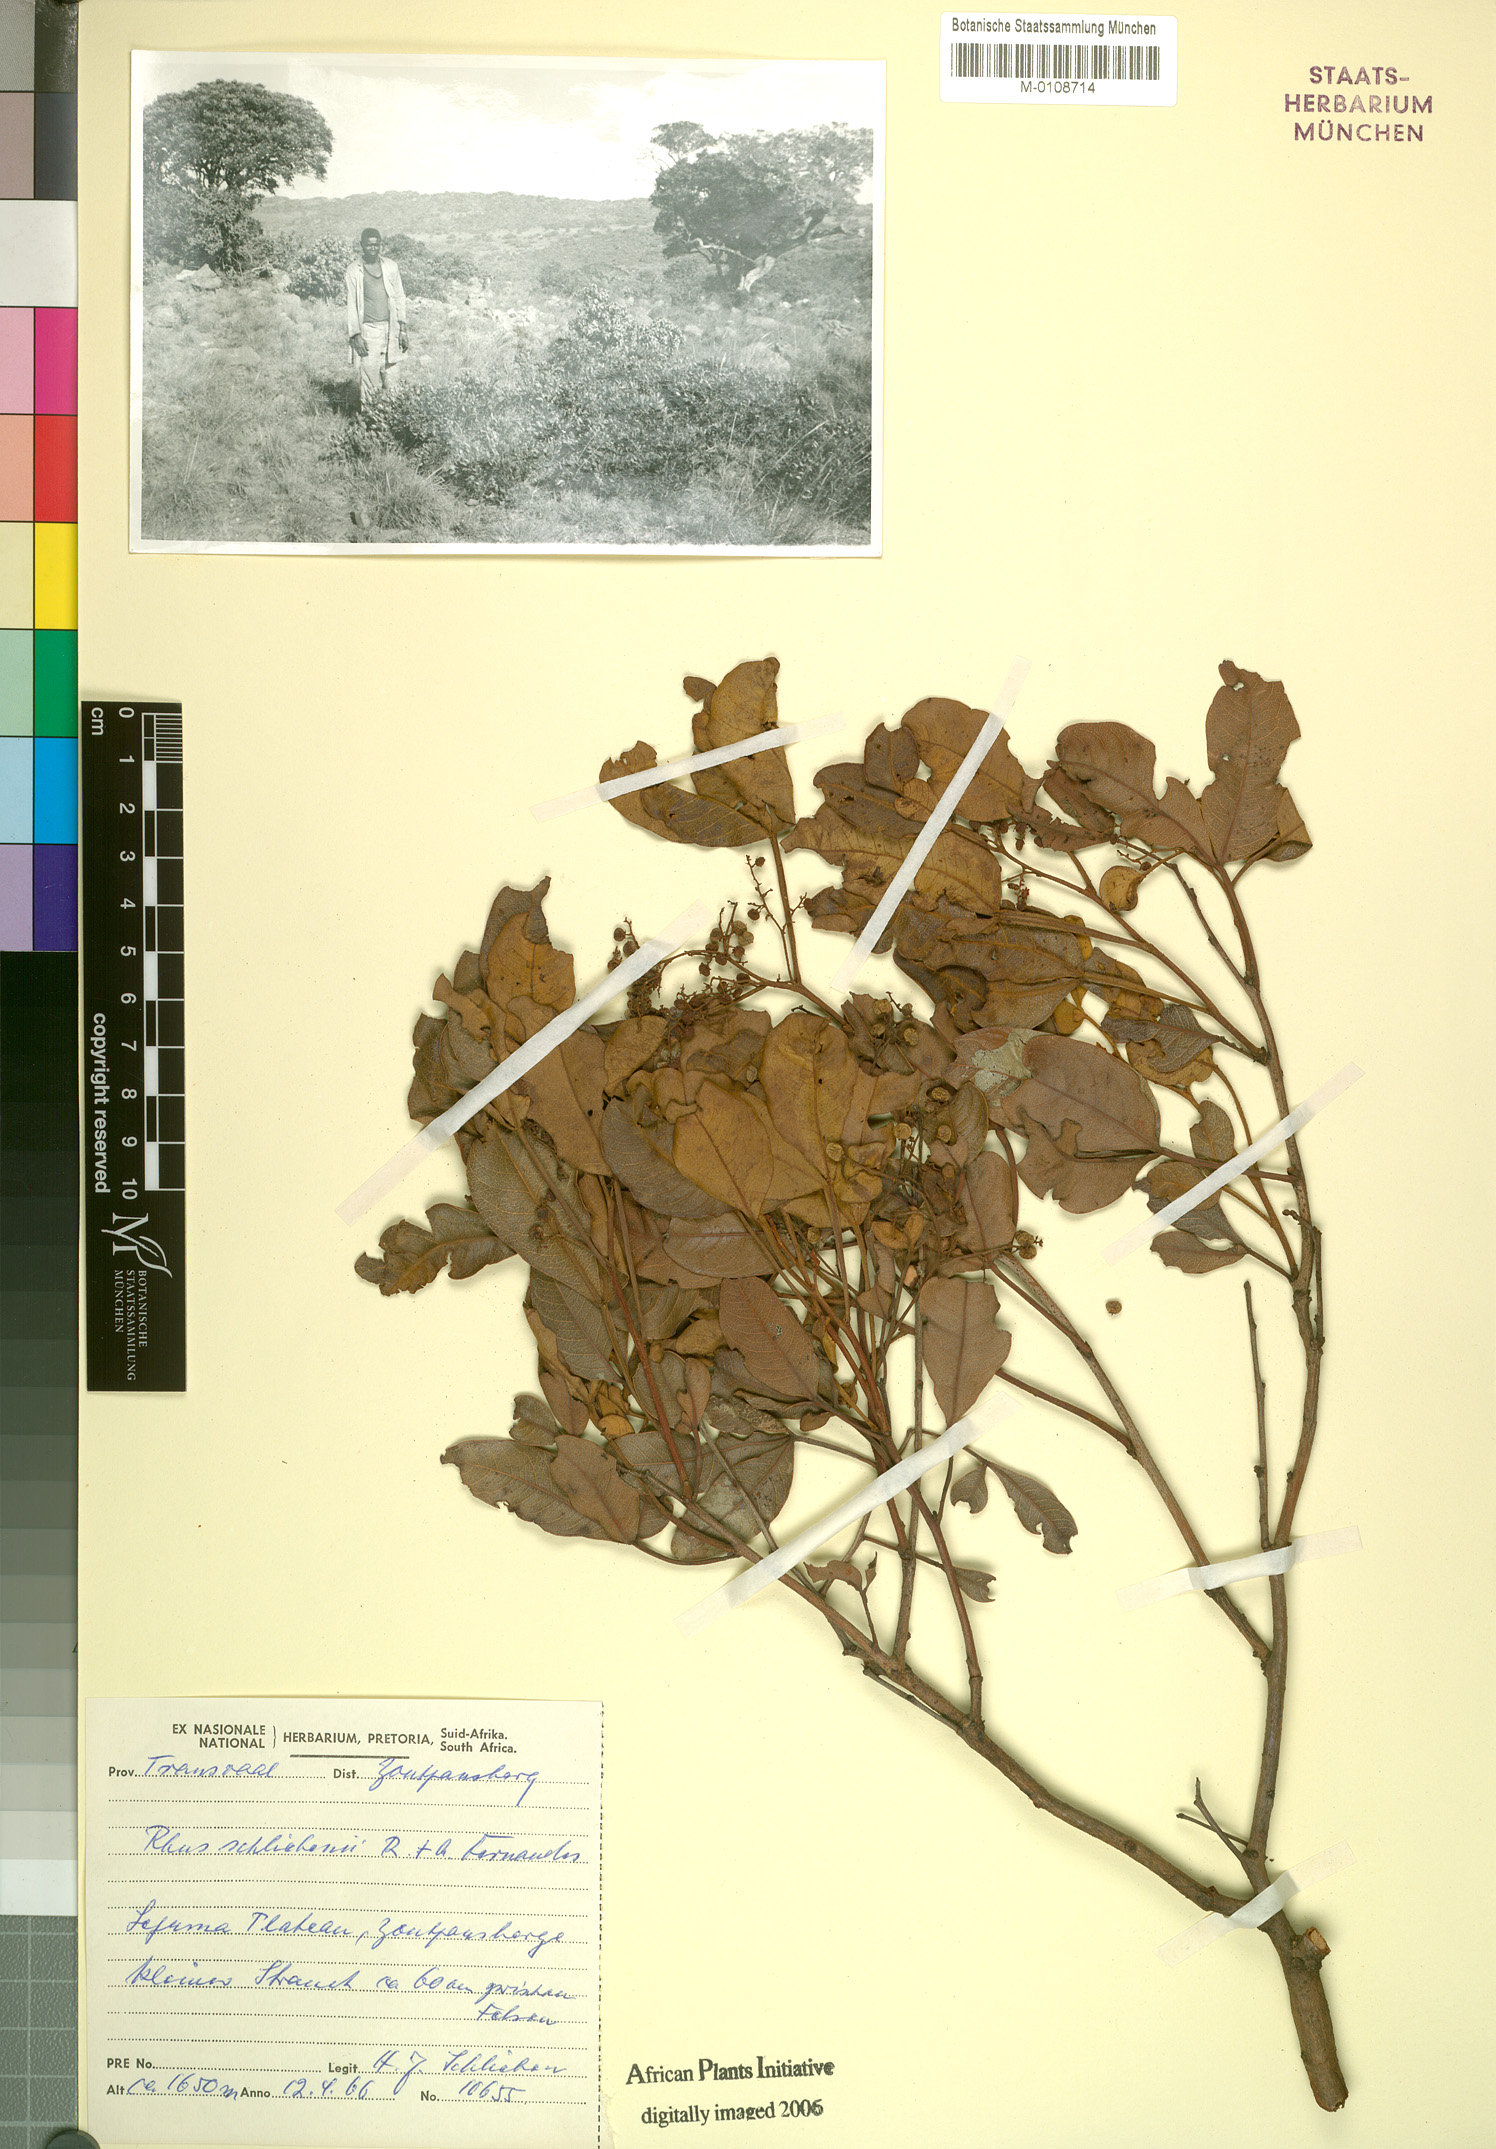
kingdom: Plantae
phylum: Tracheophyta
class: Magnoliopsida
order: Sapindales
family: Anacardiaceae
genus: Searsia
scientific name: Searsia magalismontana
